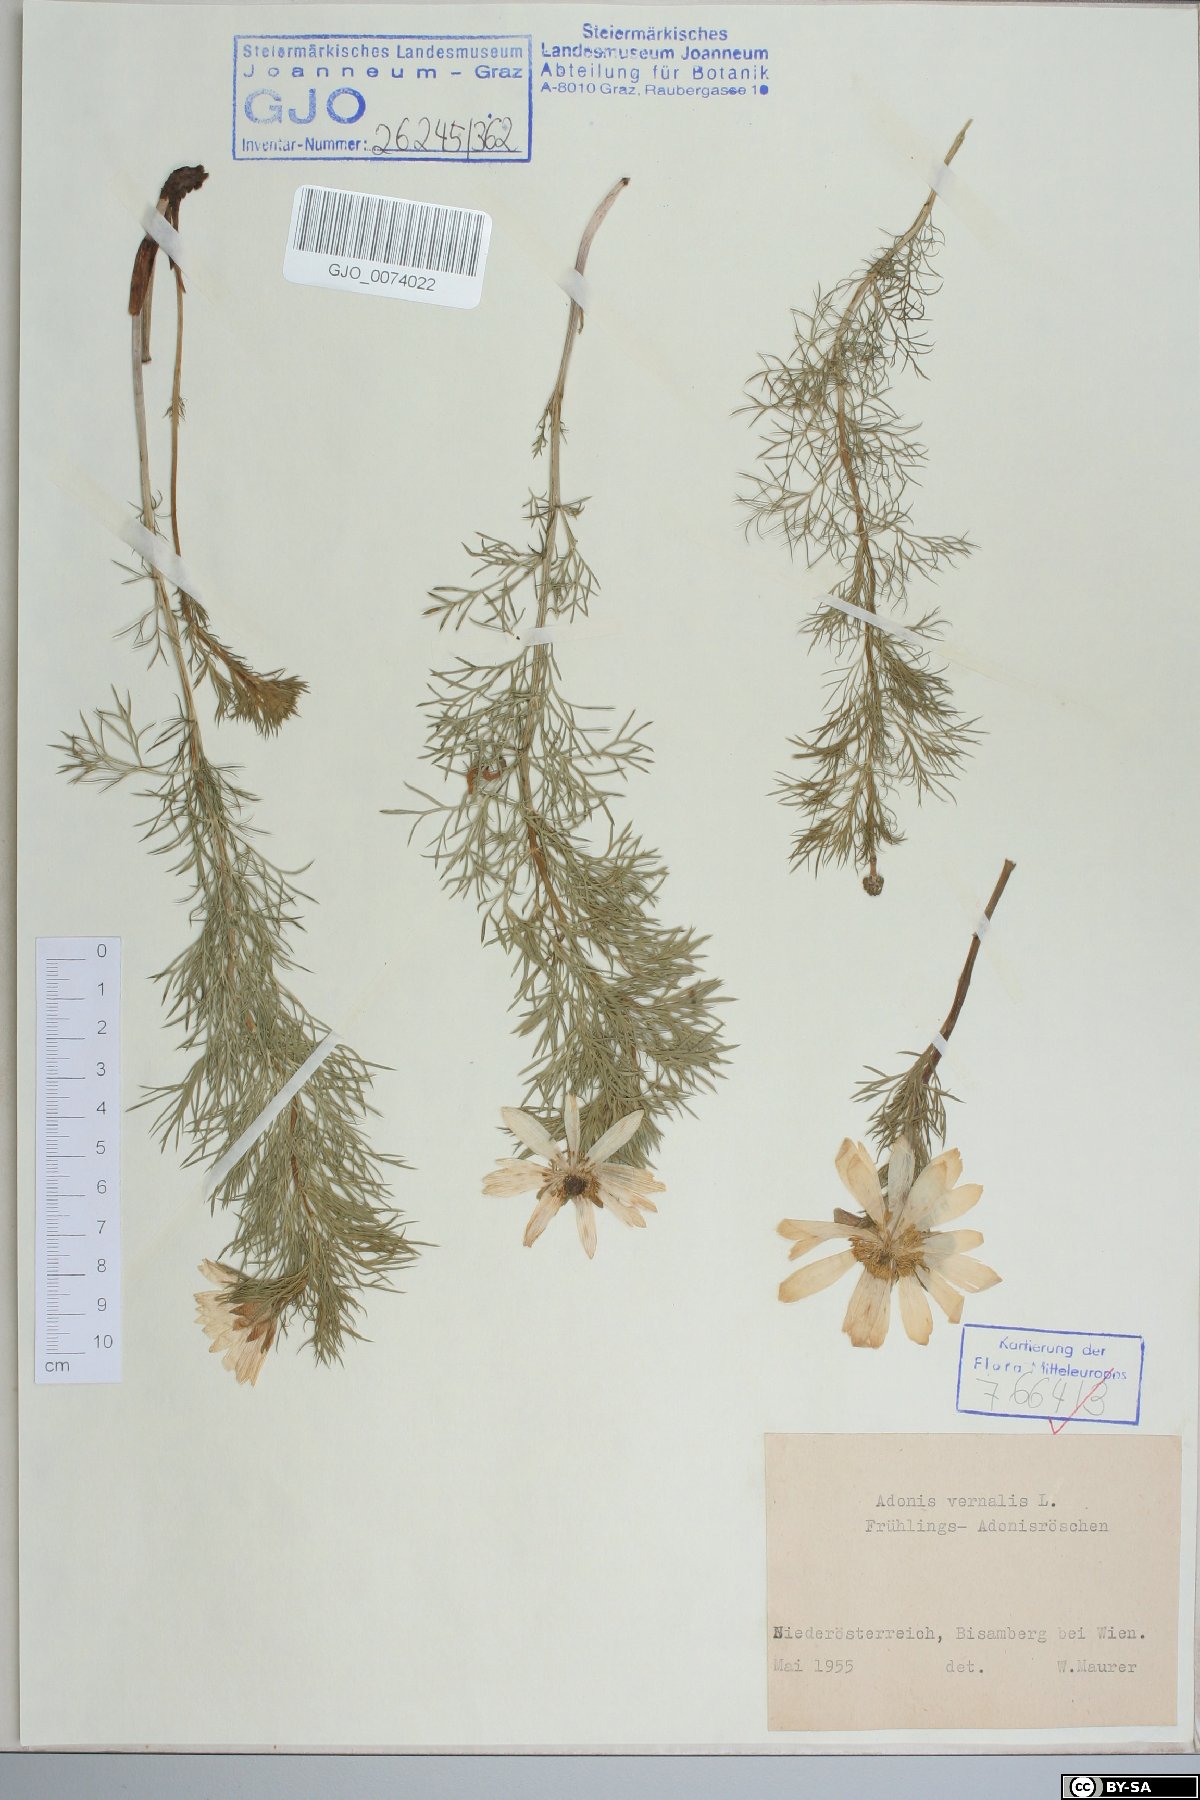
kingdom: Plantae
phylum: Tracheophyta
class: Magnoliopsida
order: Ranunculales
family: Ranunculaceae
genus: Adonis
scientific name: Adonis vernalis
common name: Yellow pheasants-eye
